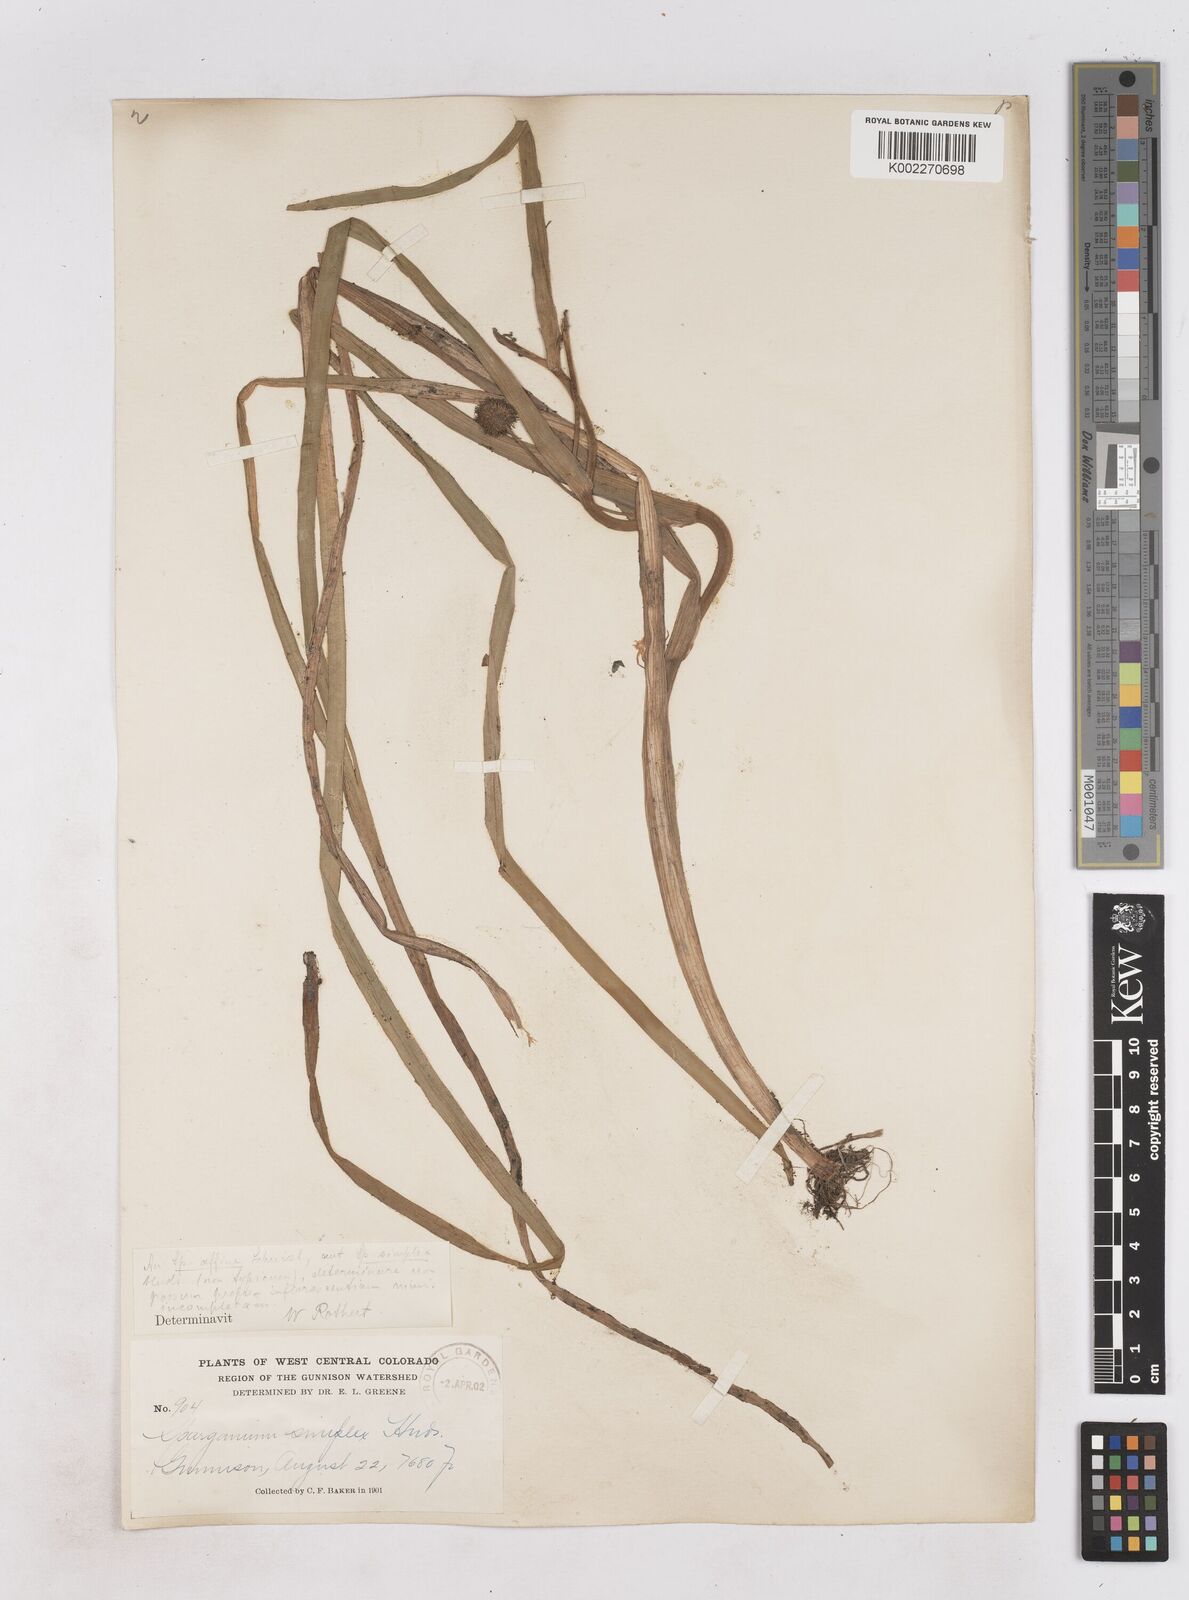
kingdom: Plantae
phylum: Tracheophyta
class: Liliopsida
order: Poales
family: Typhaceae
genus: Sparganium
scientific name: Sparganium emersum
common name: Unbranched bur-reed
